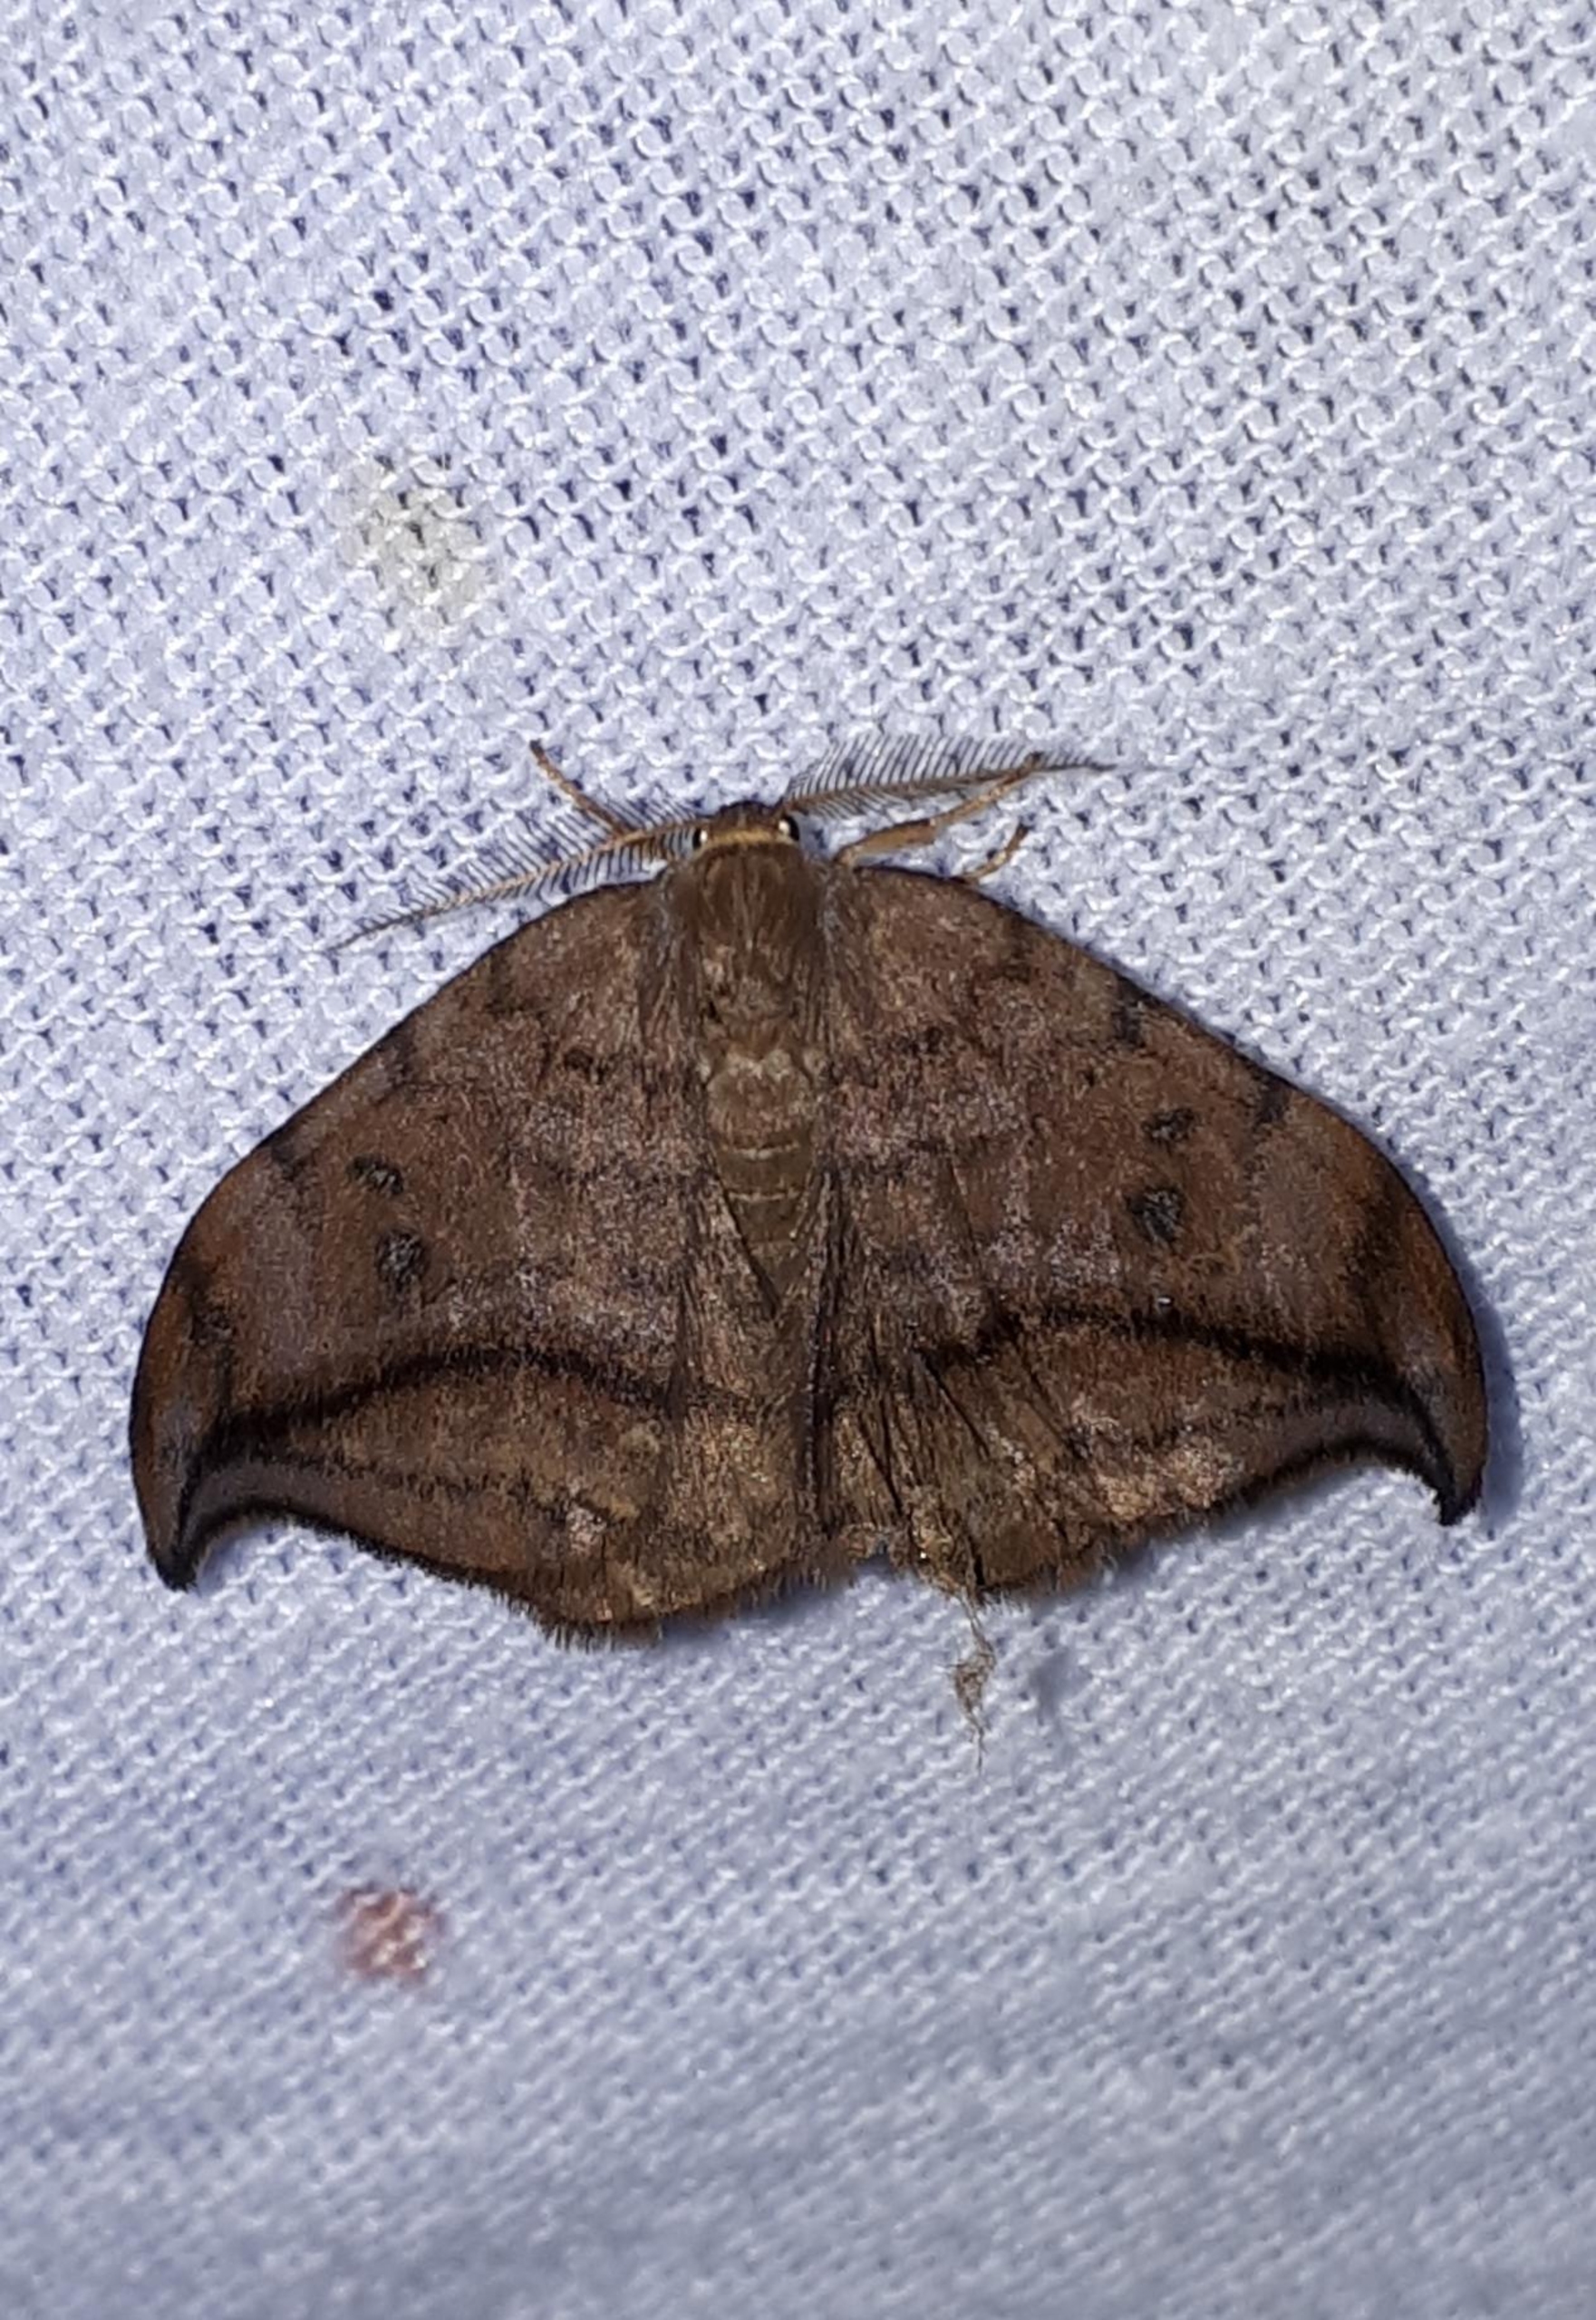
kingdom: Animalia
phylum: Arthropoda
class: Insecta
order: Lepidoptera
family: Drepanidae
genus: Drepana
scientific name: Drepana curvatula
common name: Brun seglvinge
